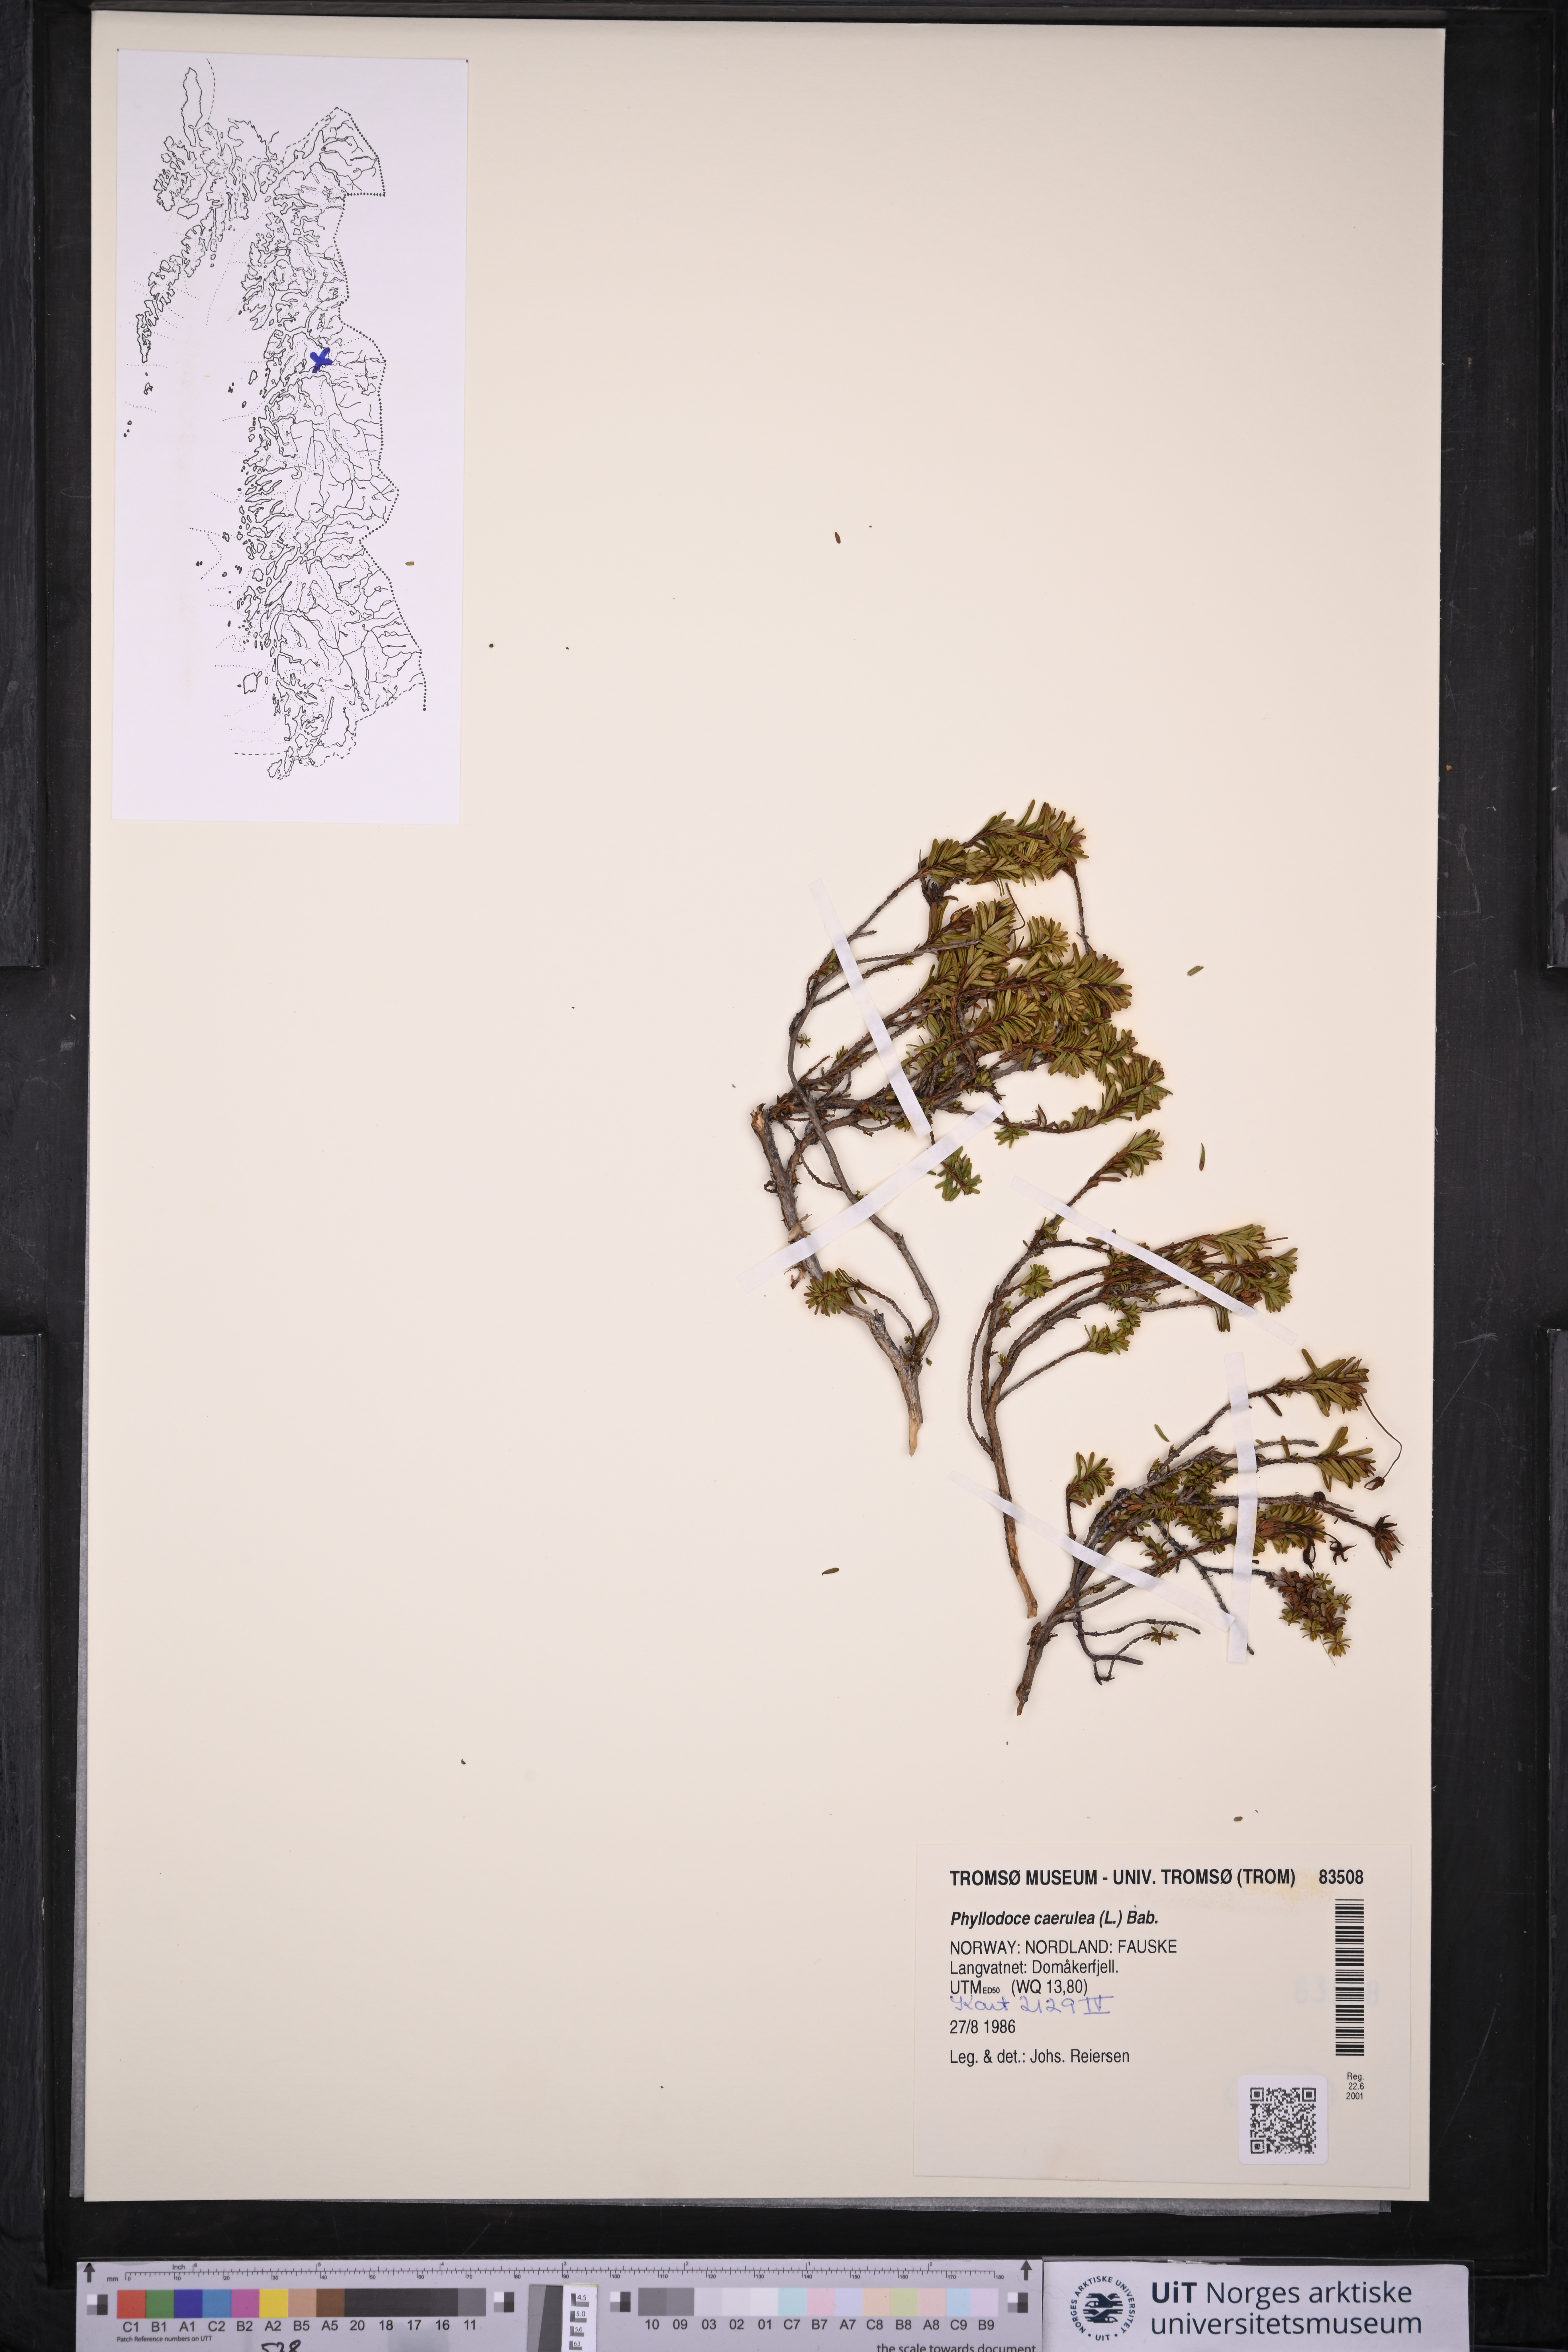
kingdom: Plantae
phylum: Tracheophyta
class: Magnoliopsida
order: Ericales
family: Ericaceae
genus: Phyllodoce
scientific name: Phyllodoce caerulea
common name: Blue heath
